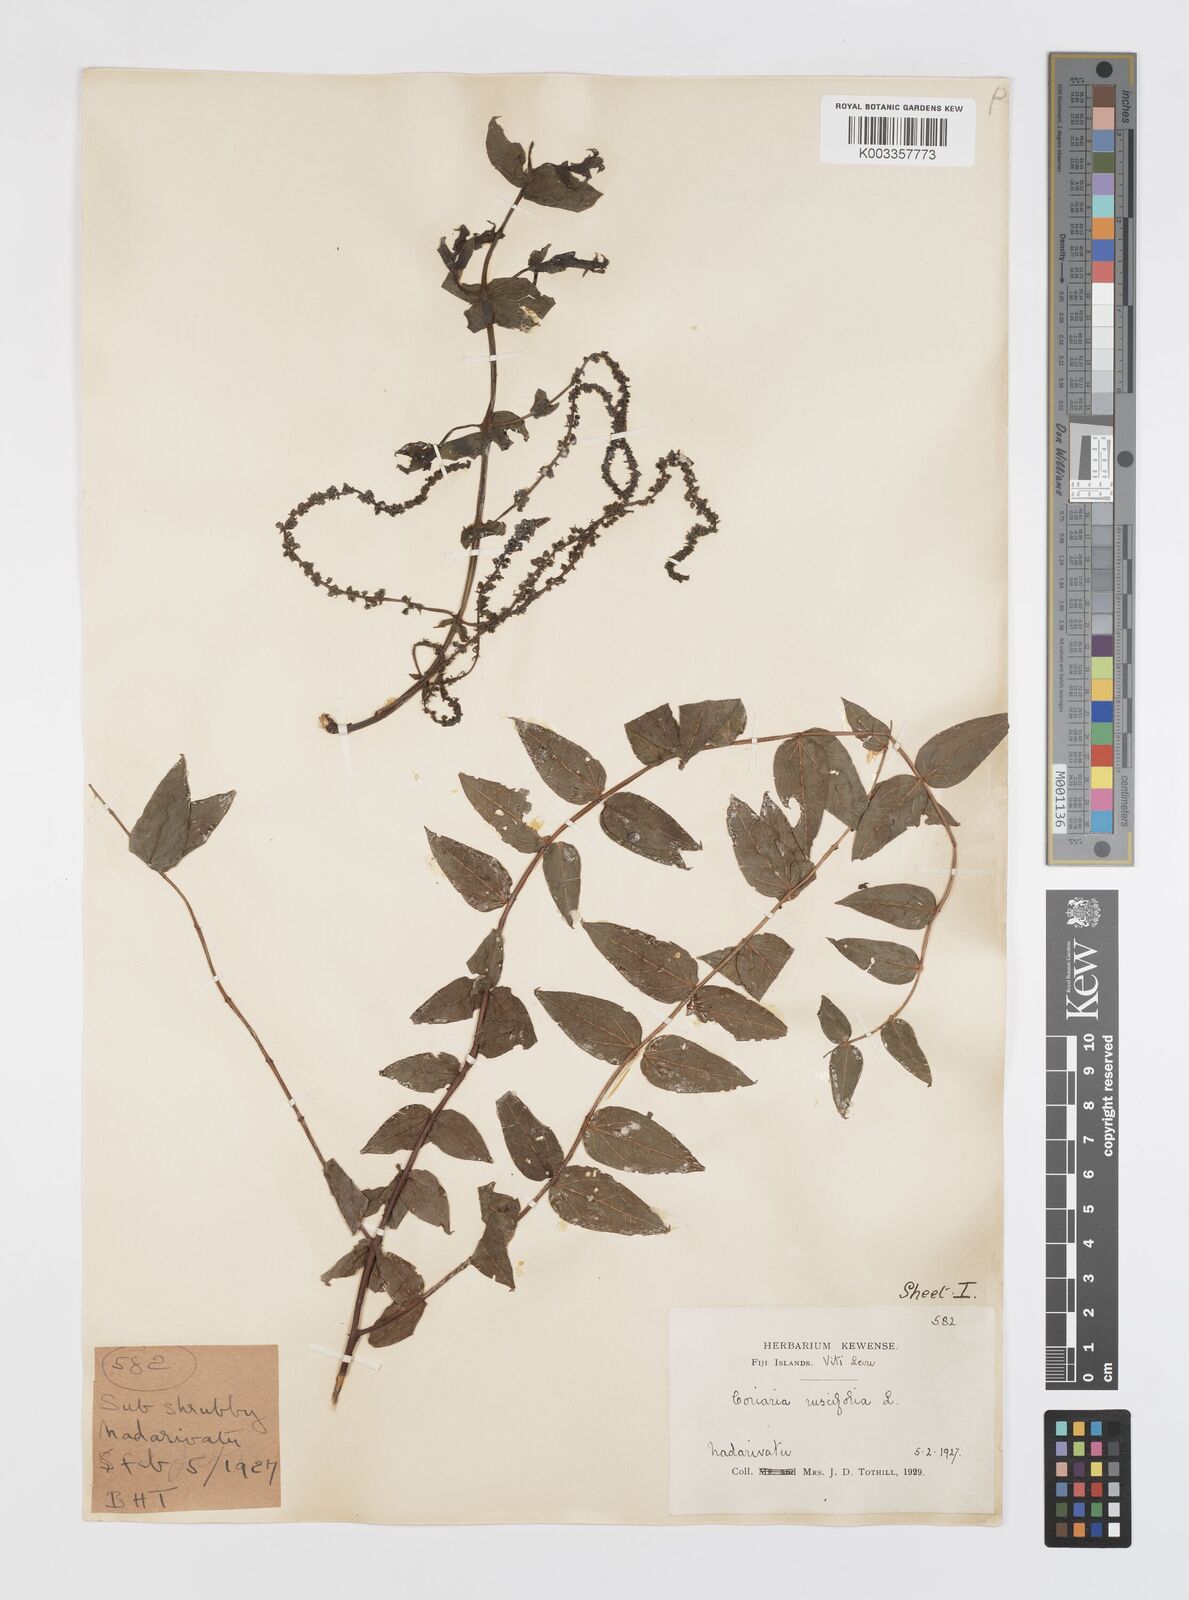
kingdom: Plantae
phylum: Tracheophyta
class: Magnoliopsida
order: Cucurbitales
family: Coriariaceae
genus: Coriaria
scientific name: Coriaria ruscifolia
